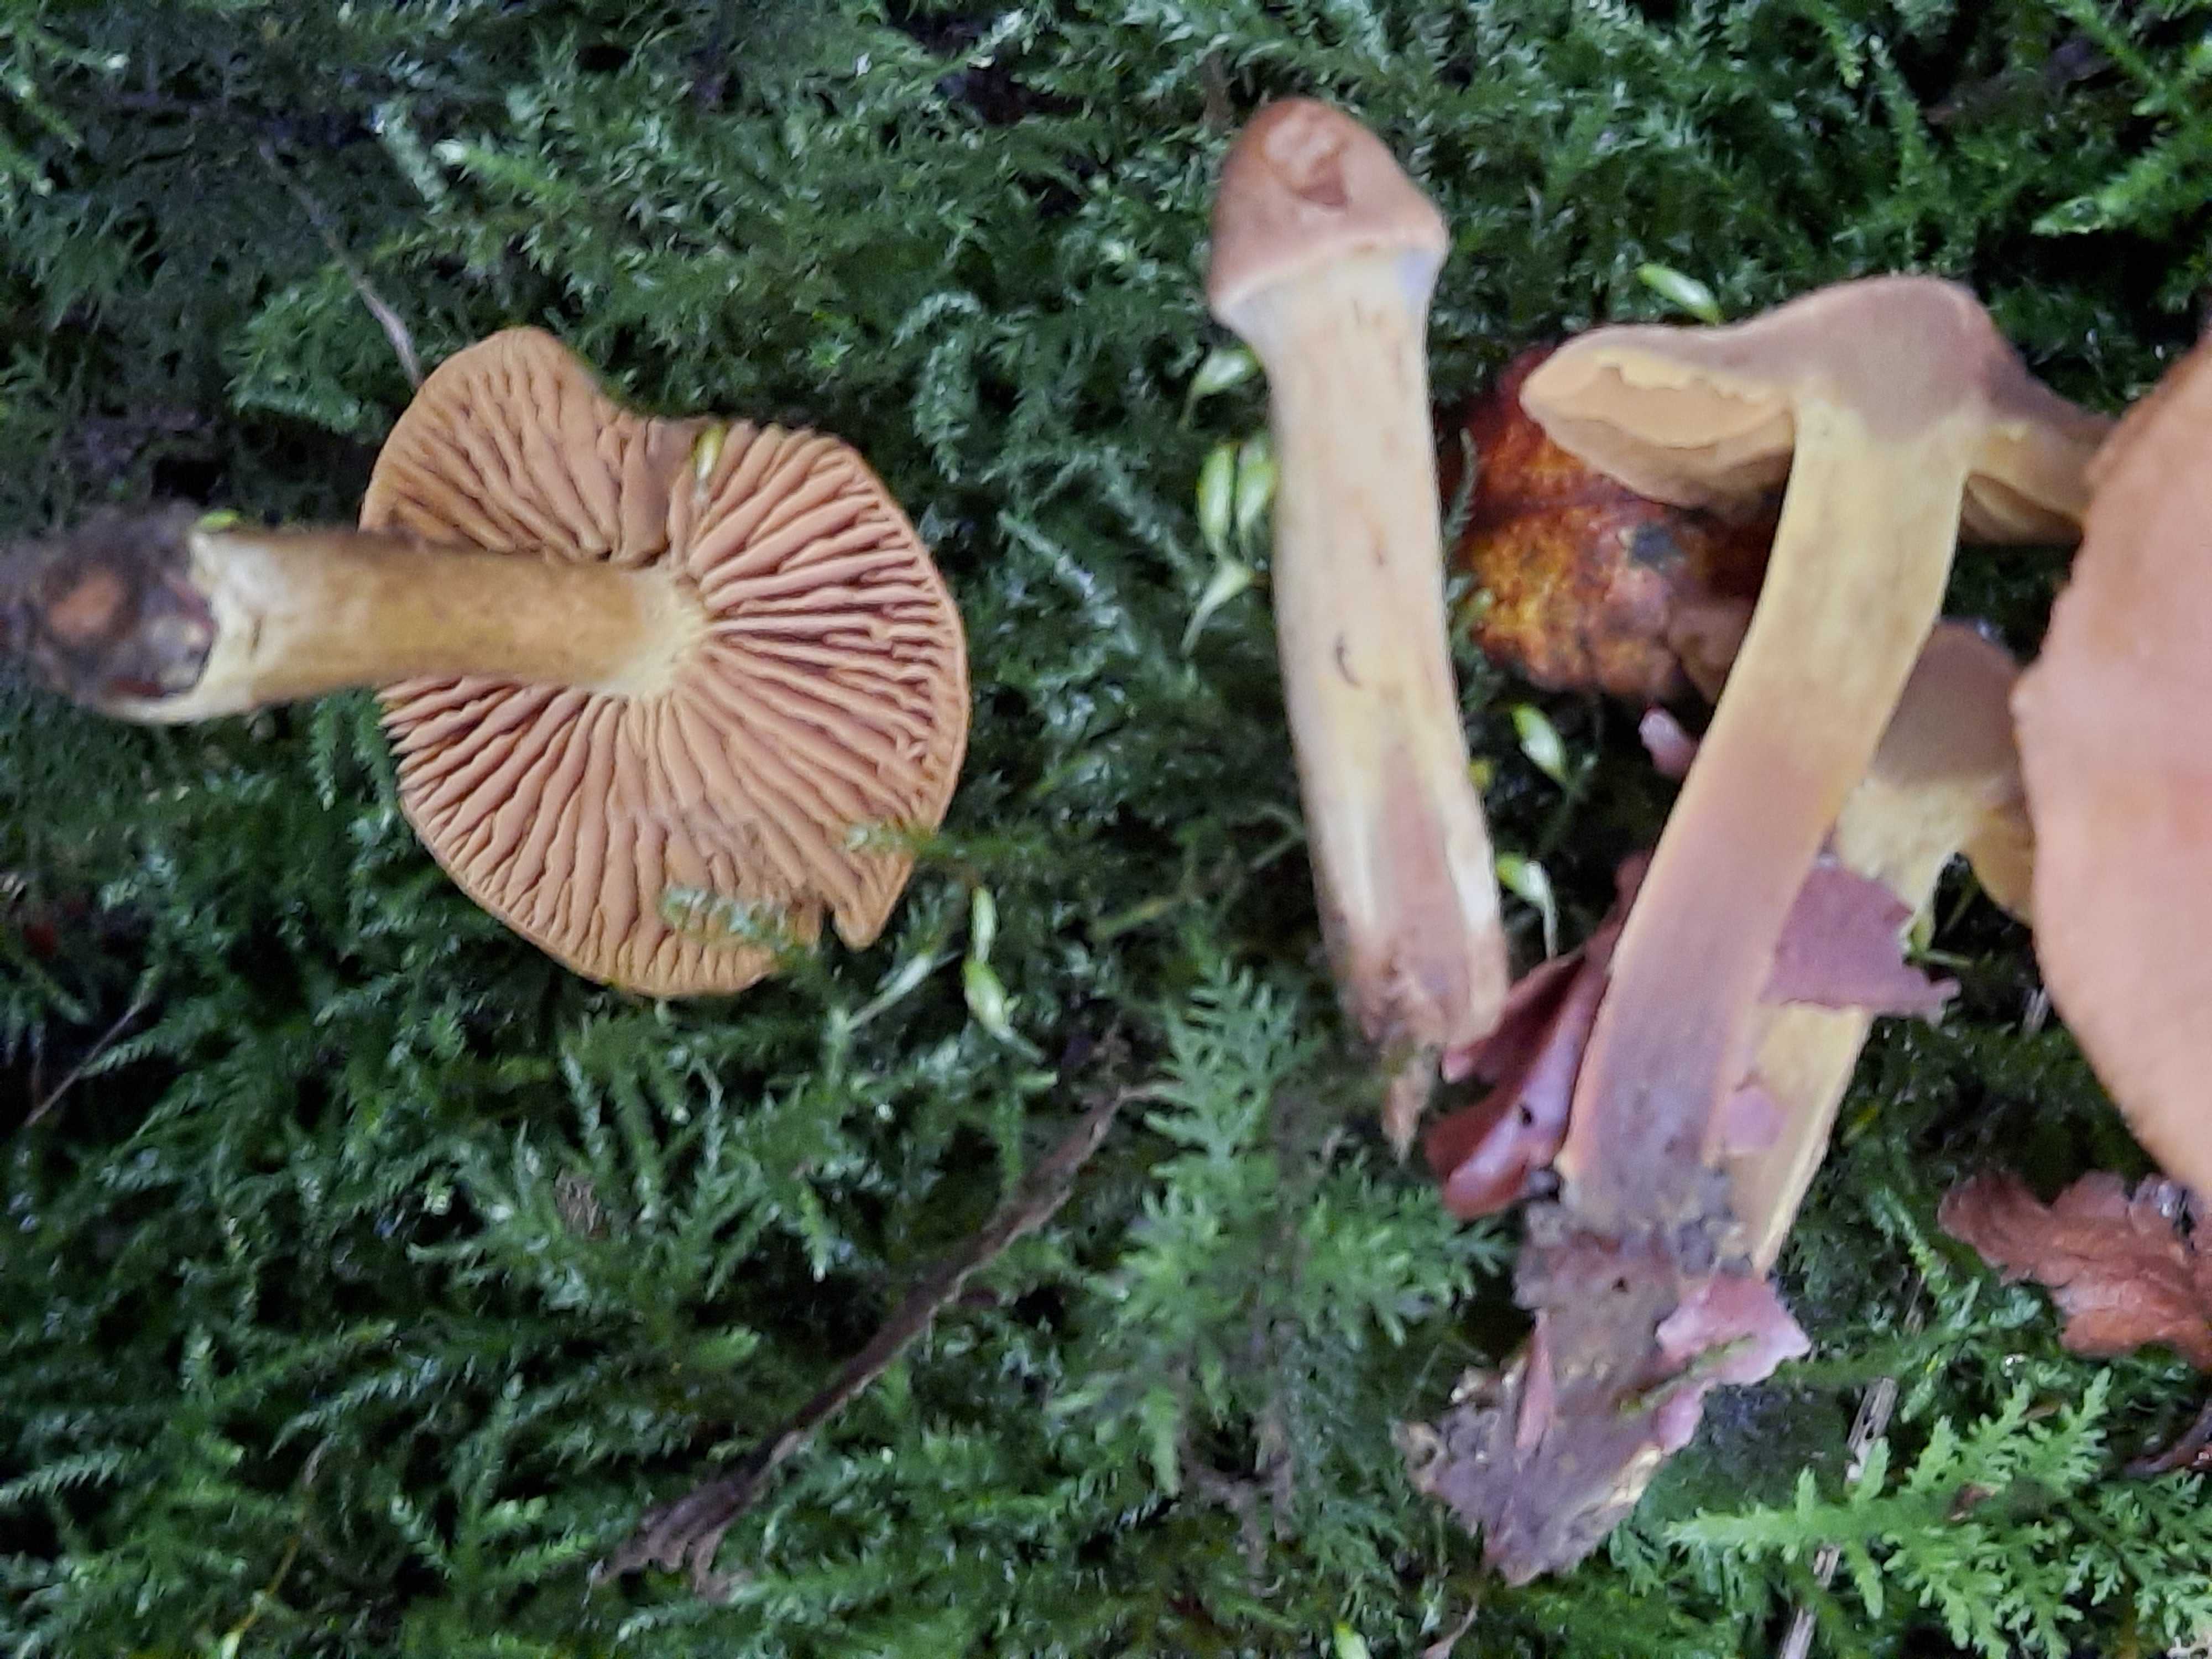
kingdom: Fungi
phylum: Basidiomycota
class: Agaricomycetes
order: Agaricales
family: Cortinariaceae
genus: Cortinarius
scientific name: Cortinarius ultrodistortus
